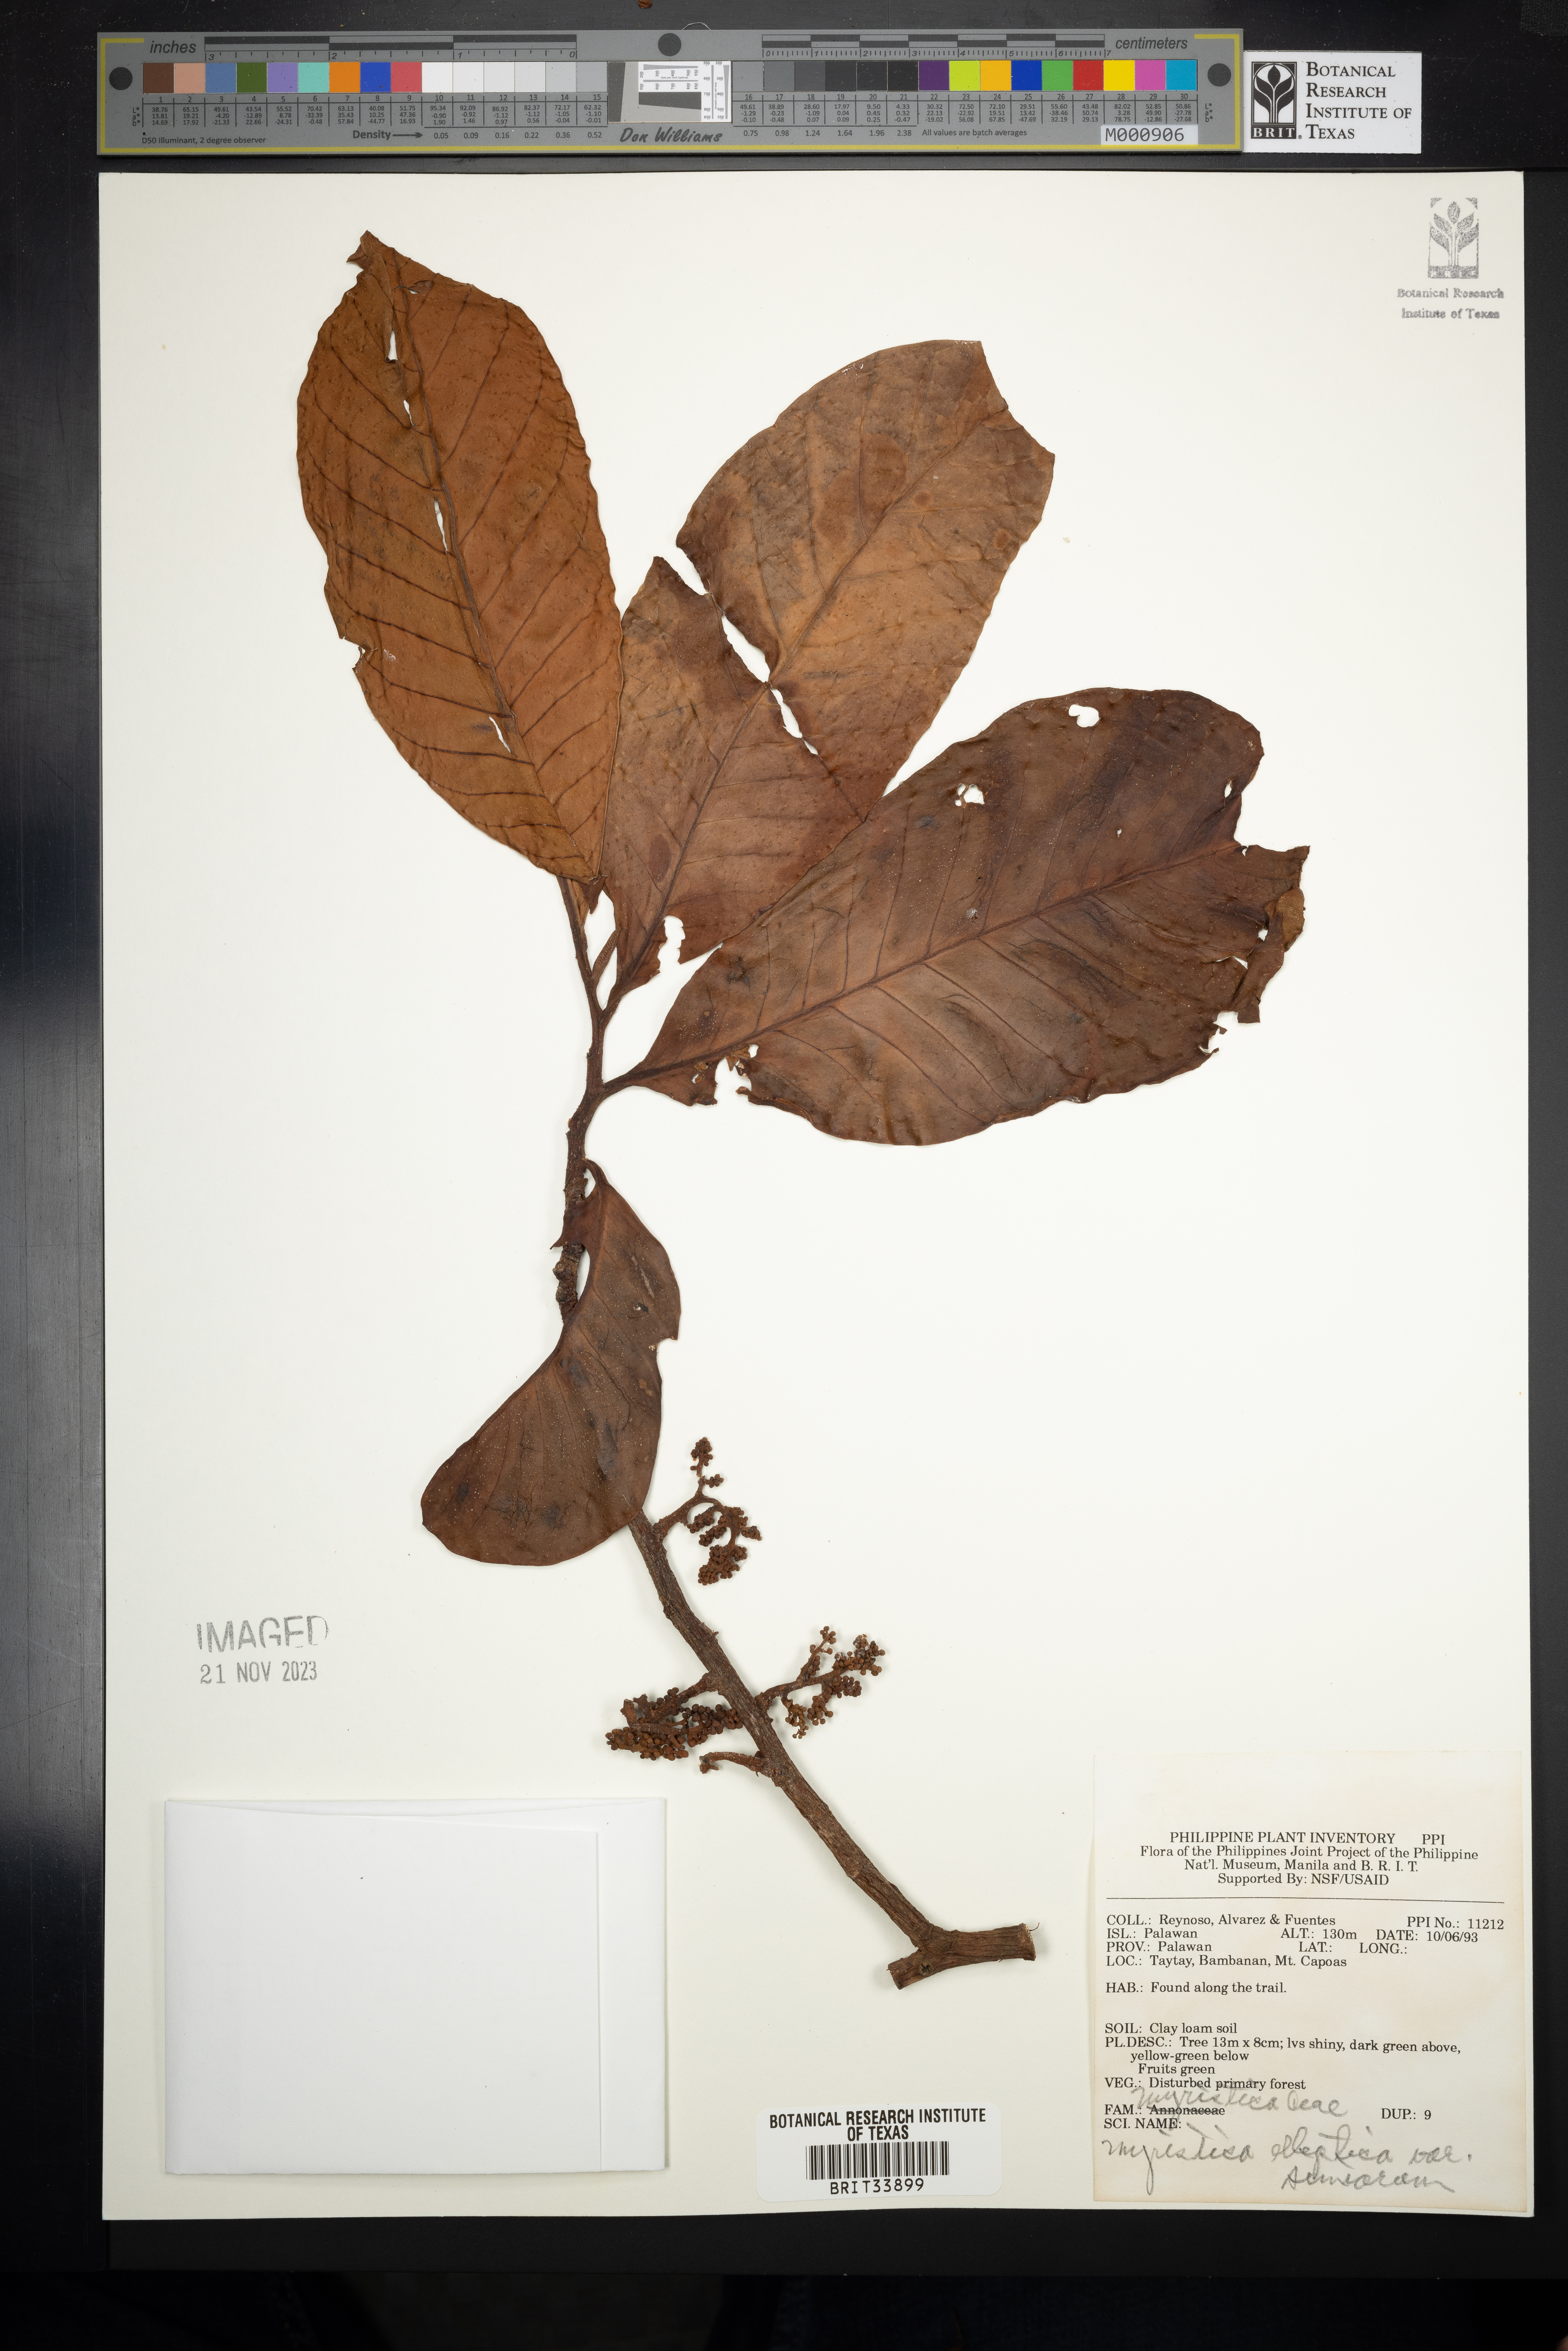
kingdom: Plantae
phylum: Tracheophyta
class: Magnoliopsida
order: Magnoliales
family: Myristicaceae
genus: Myristica
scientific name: Myristica elliptica
